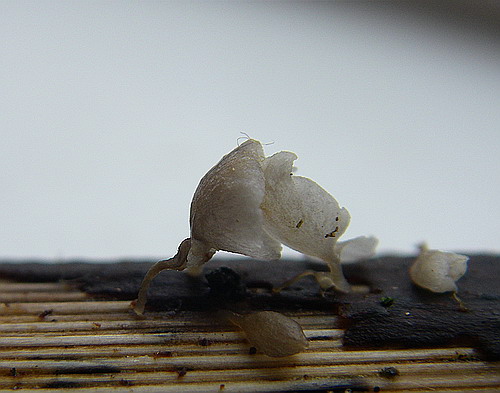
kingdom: Fungi
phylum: Basidiomycota
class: Agaricomycetes
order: Agaricales
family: Marasmiaceae
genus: Calyptella
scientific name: Calyptella gibbosa
